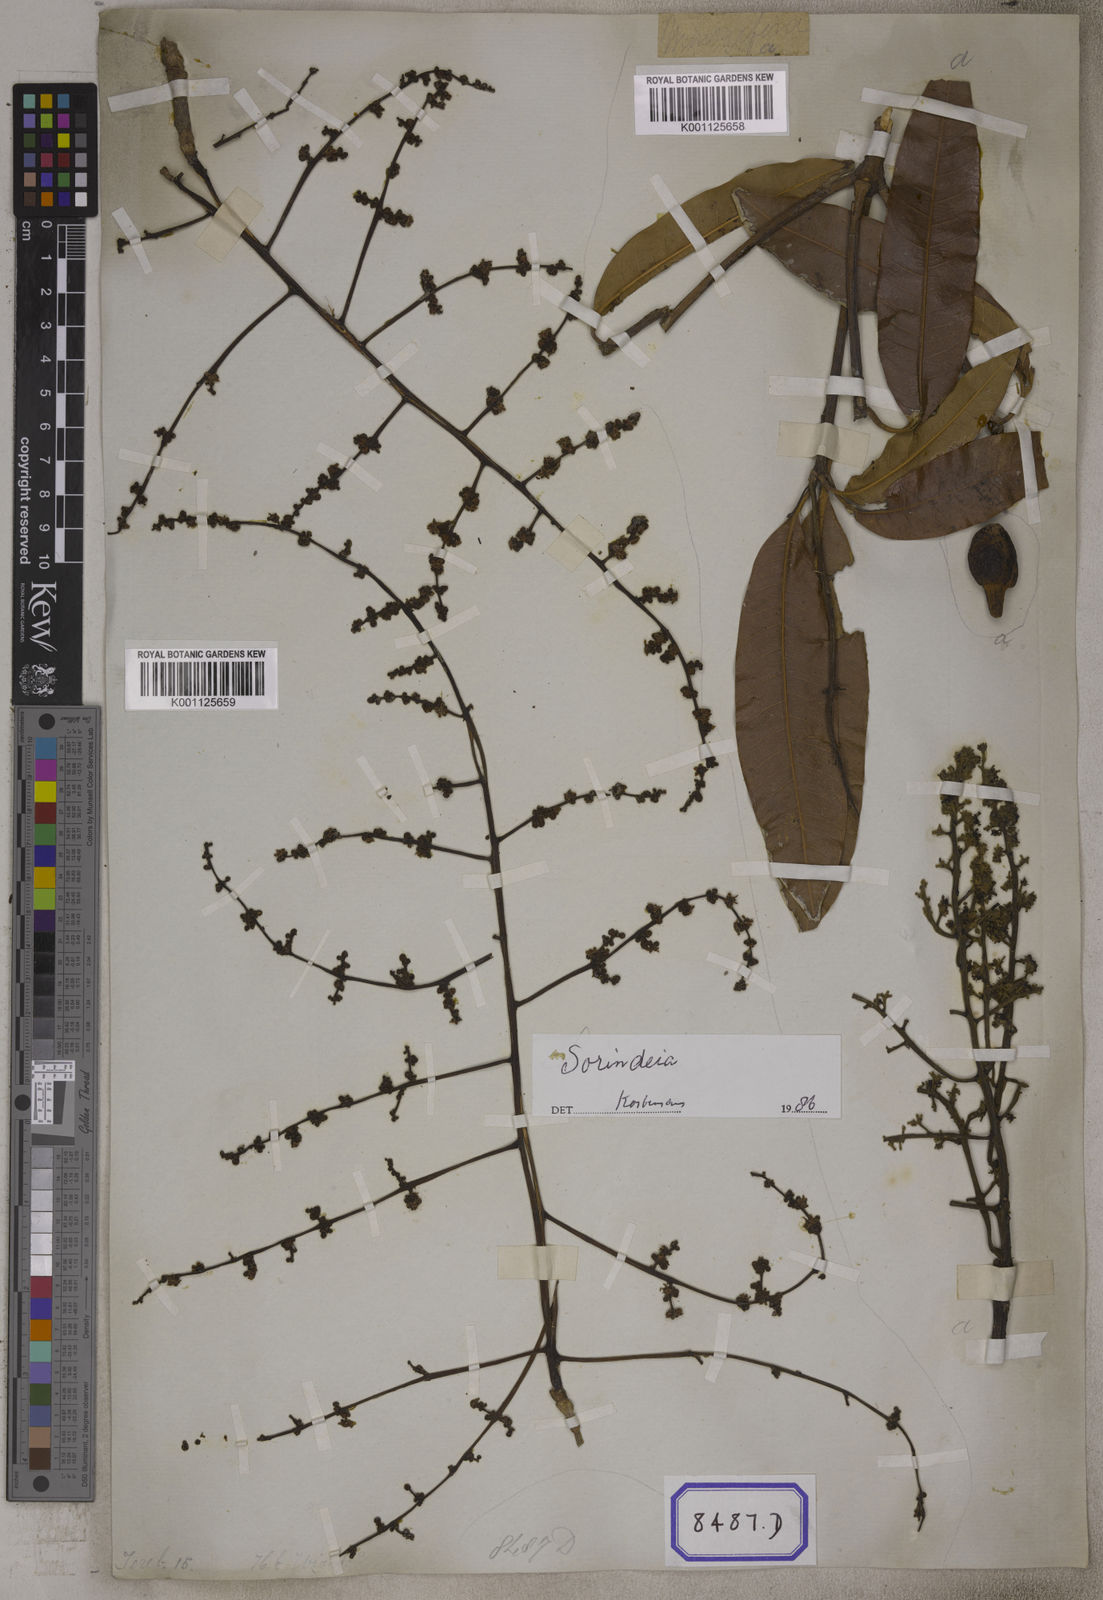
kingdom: Plantae
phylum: Tracheophyta
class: Magnoliopsida
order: Sapindales
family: Anacardiaceae
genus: Mangifera
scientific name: Mangifera indica
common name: Mango
